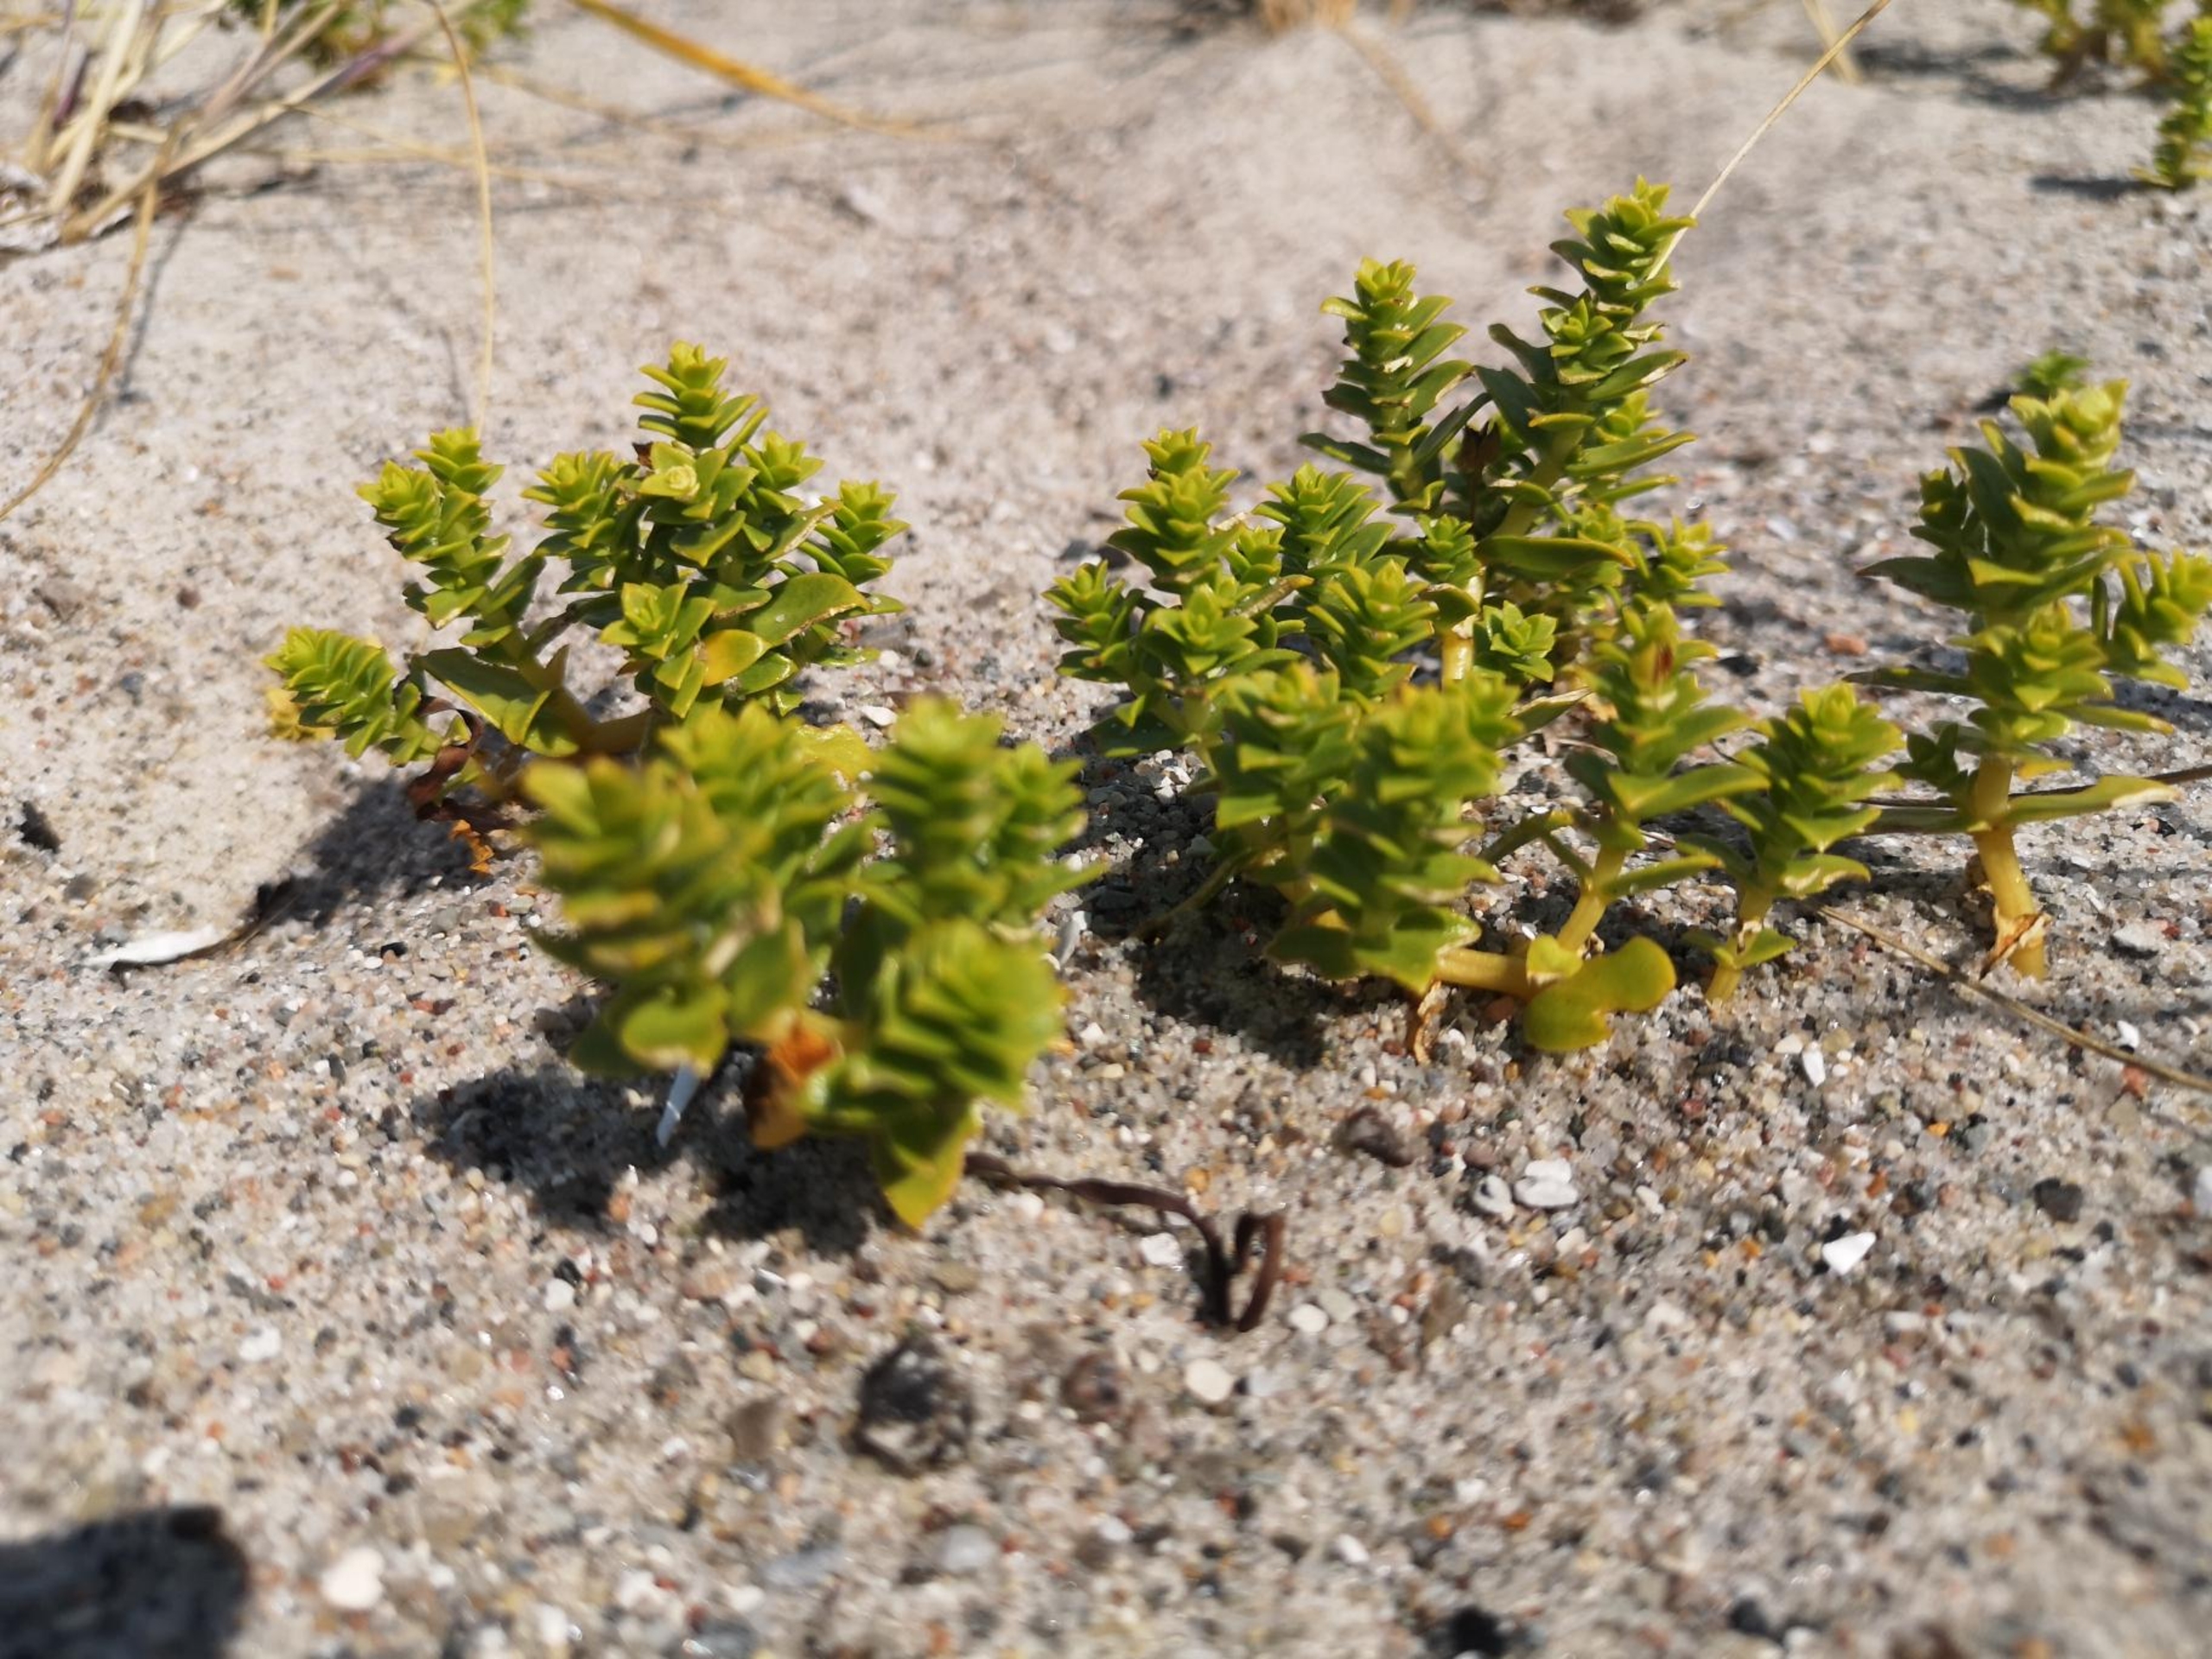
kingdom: Plantae
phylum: Tracheophyta
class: Magnoliopsida
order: Caryophyllales
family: Caryophyllaceae
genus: Honckenya
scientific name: Honckenya peploides
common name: Strandarve
